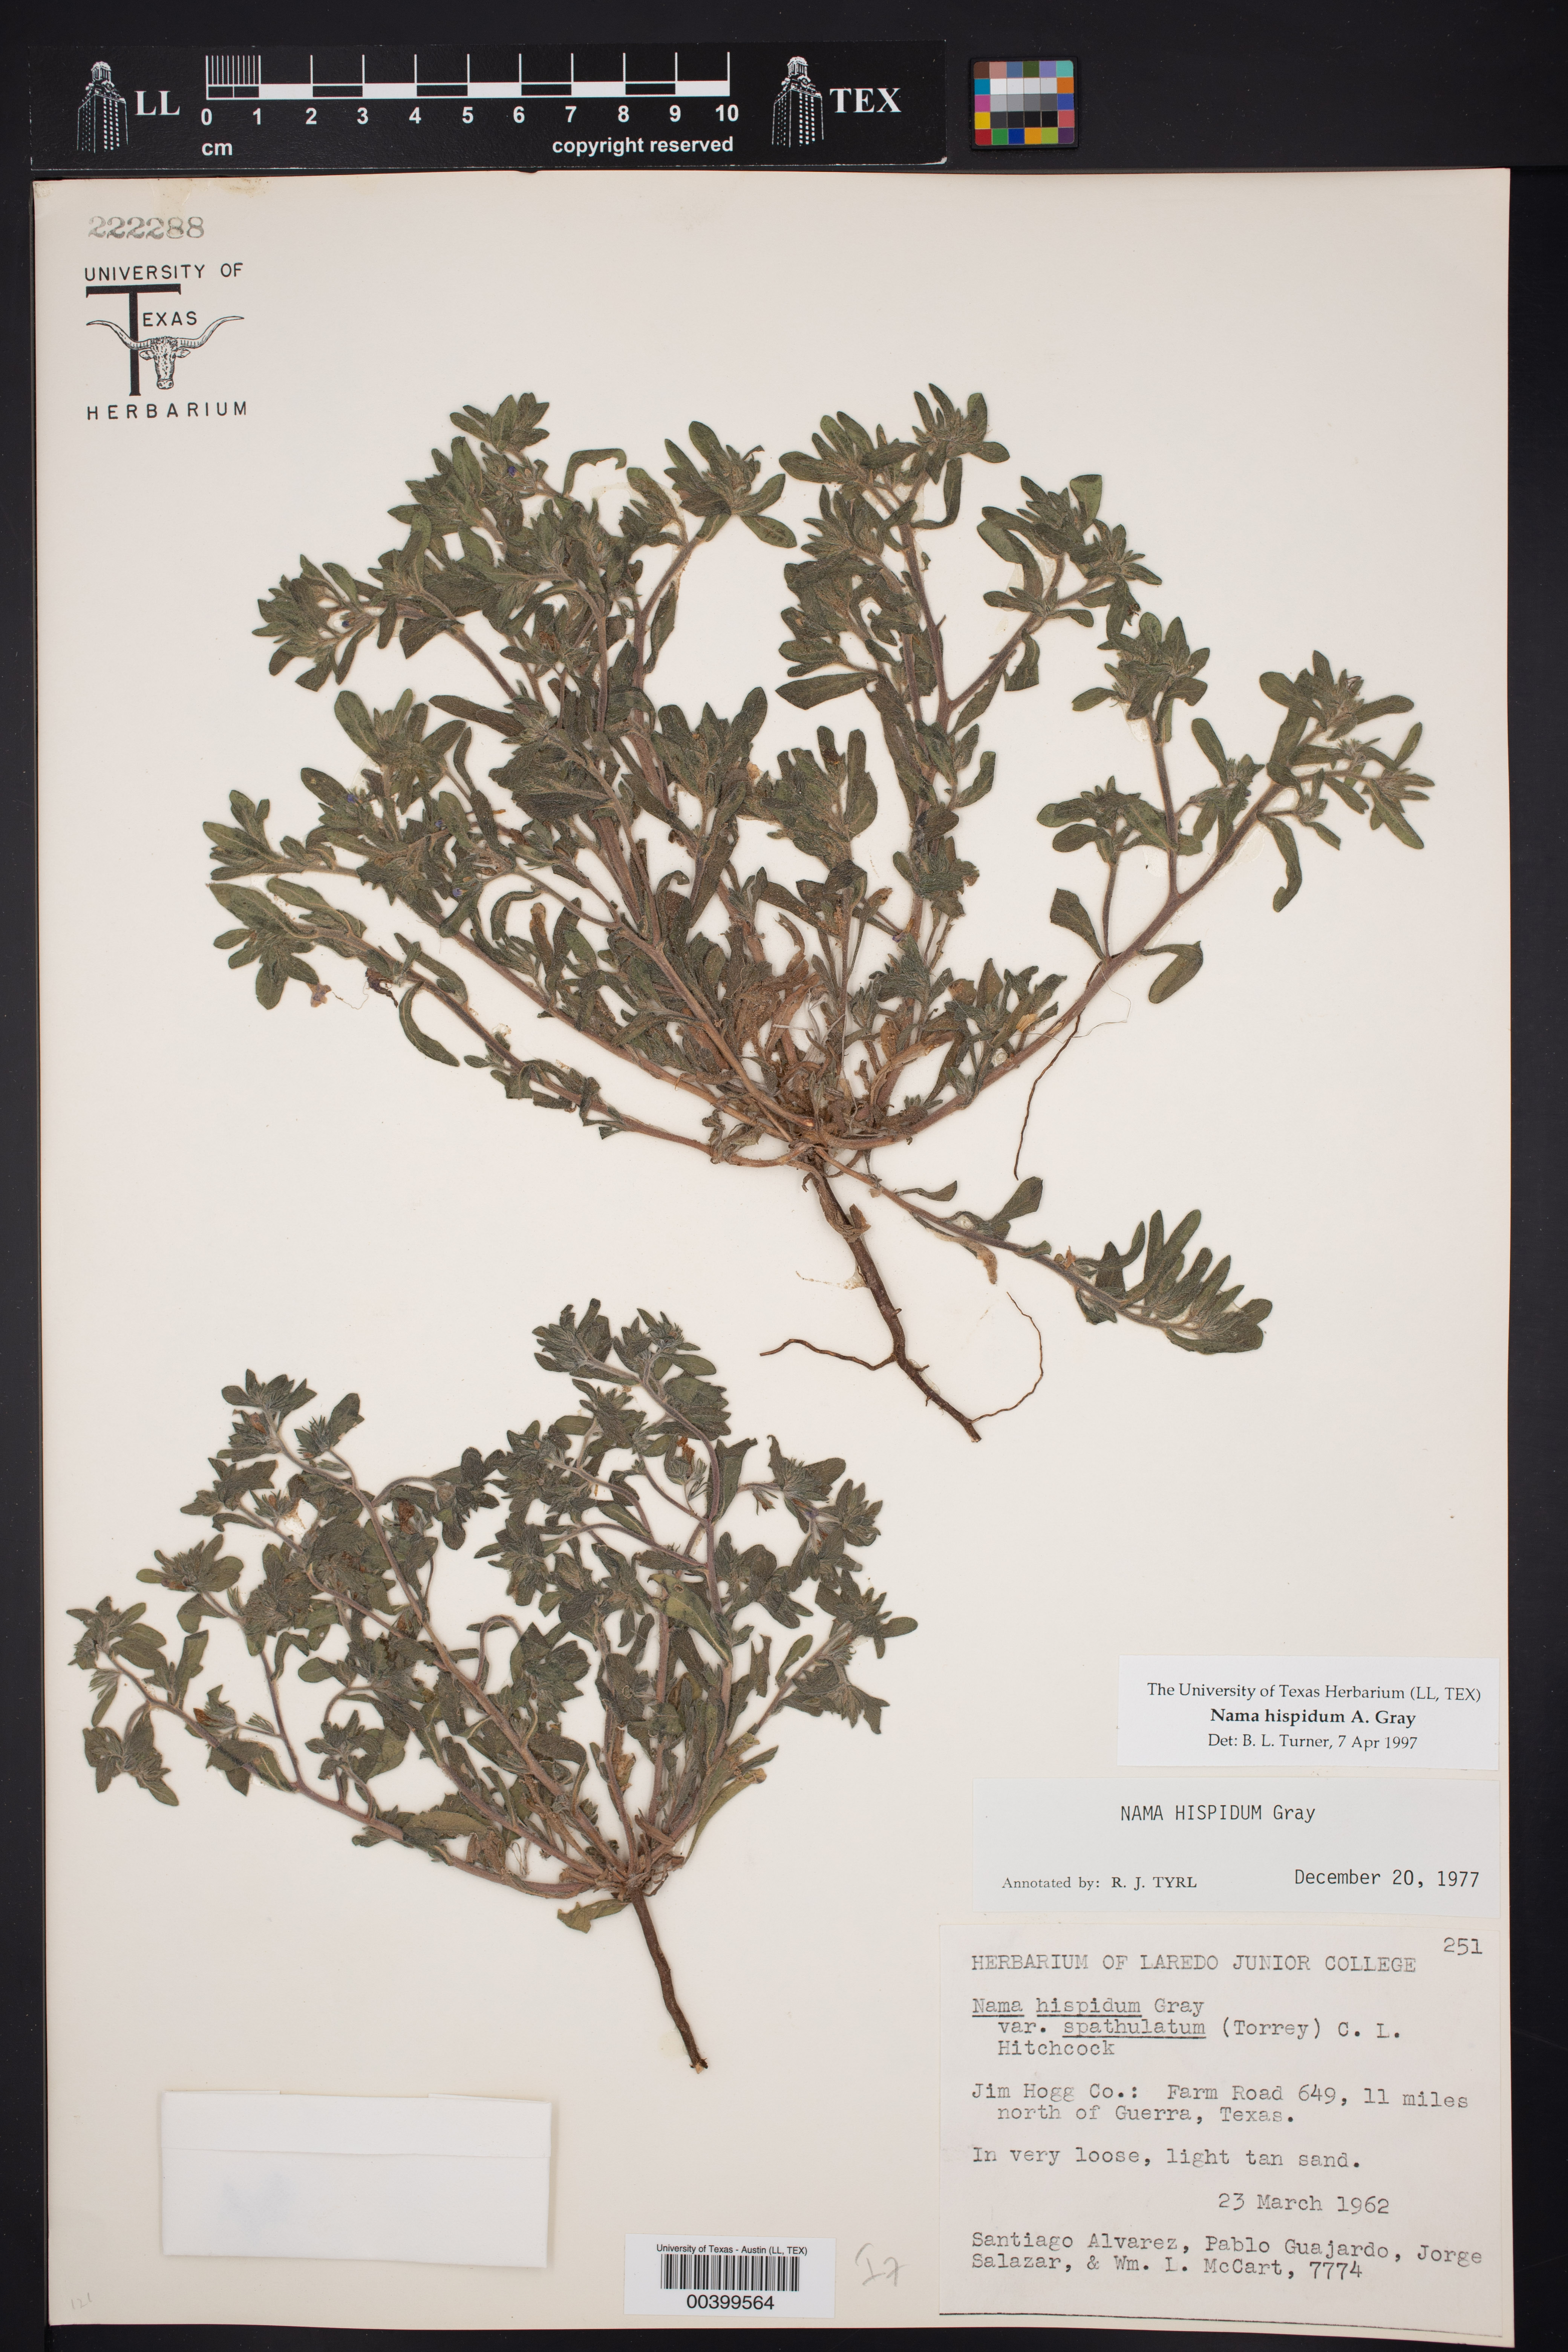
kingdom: Plantae
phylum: Tracheophyta
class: Magnoliopsida
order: Boraginales
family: Namaceae
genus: Nama
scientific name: Nama hispida
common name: Bristly nama
